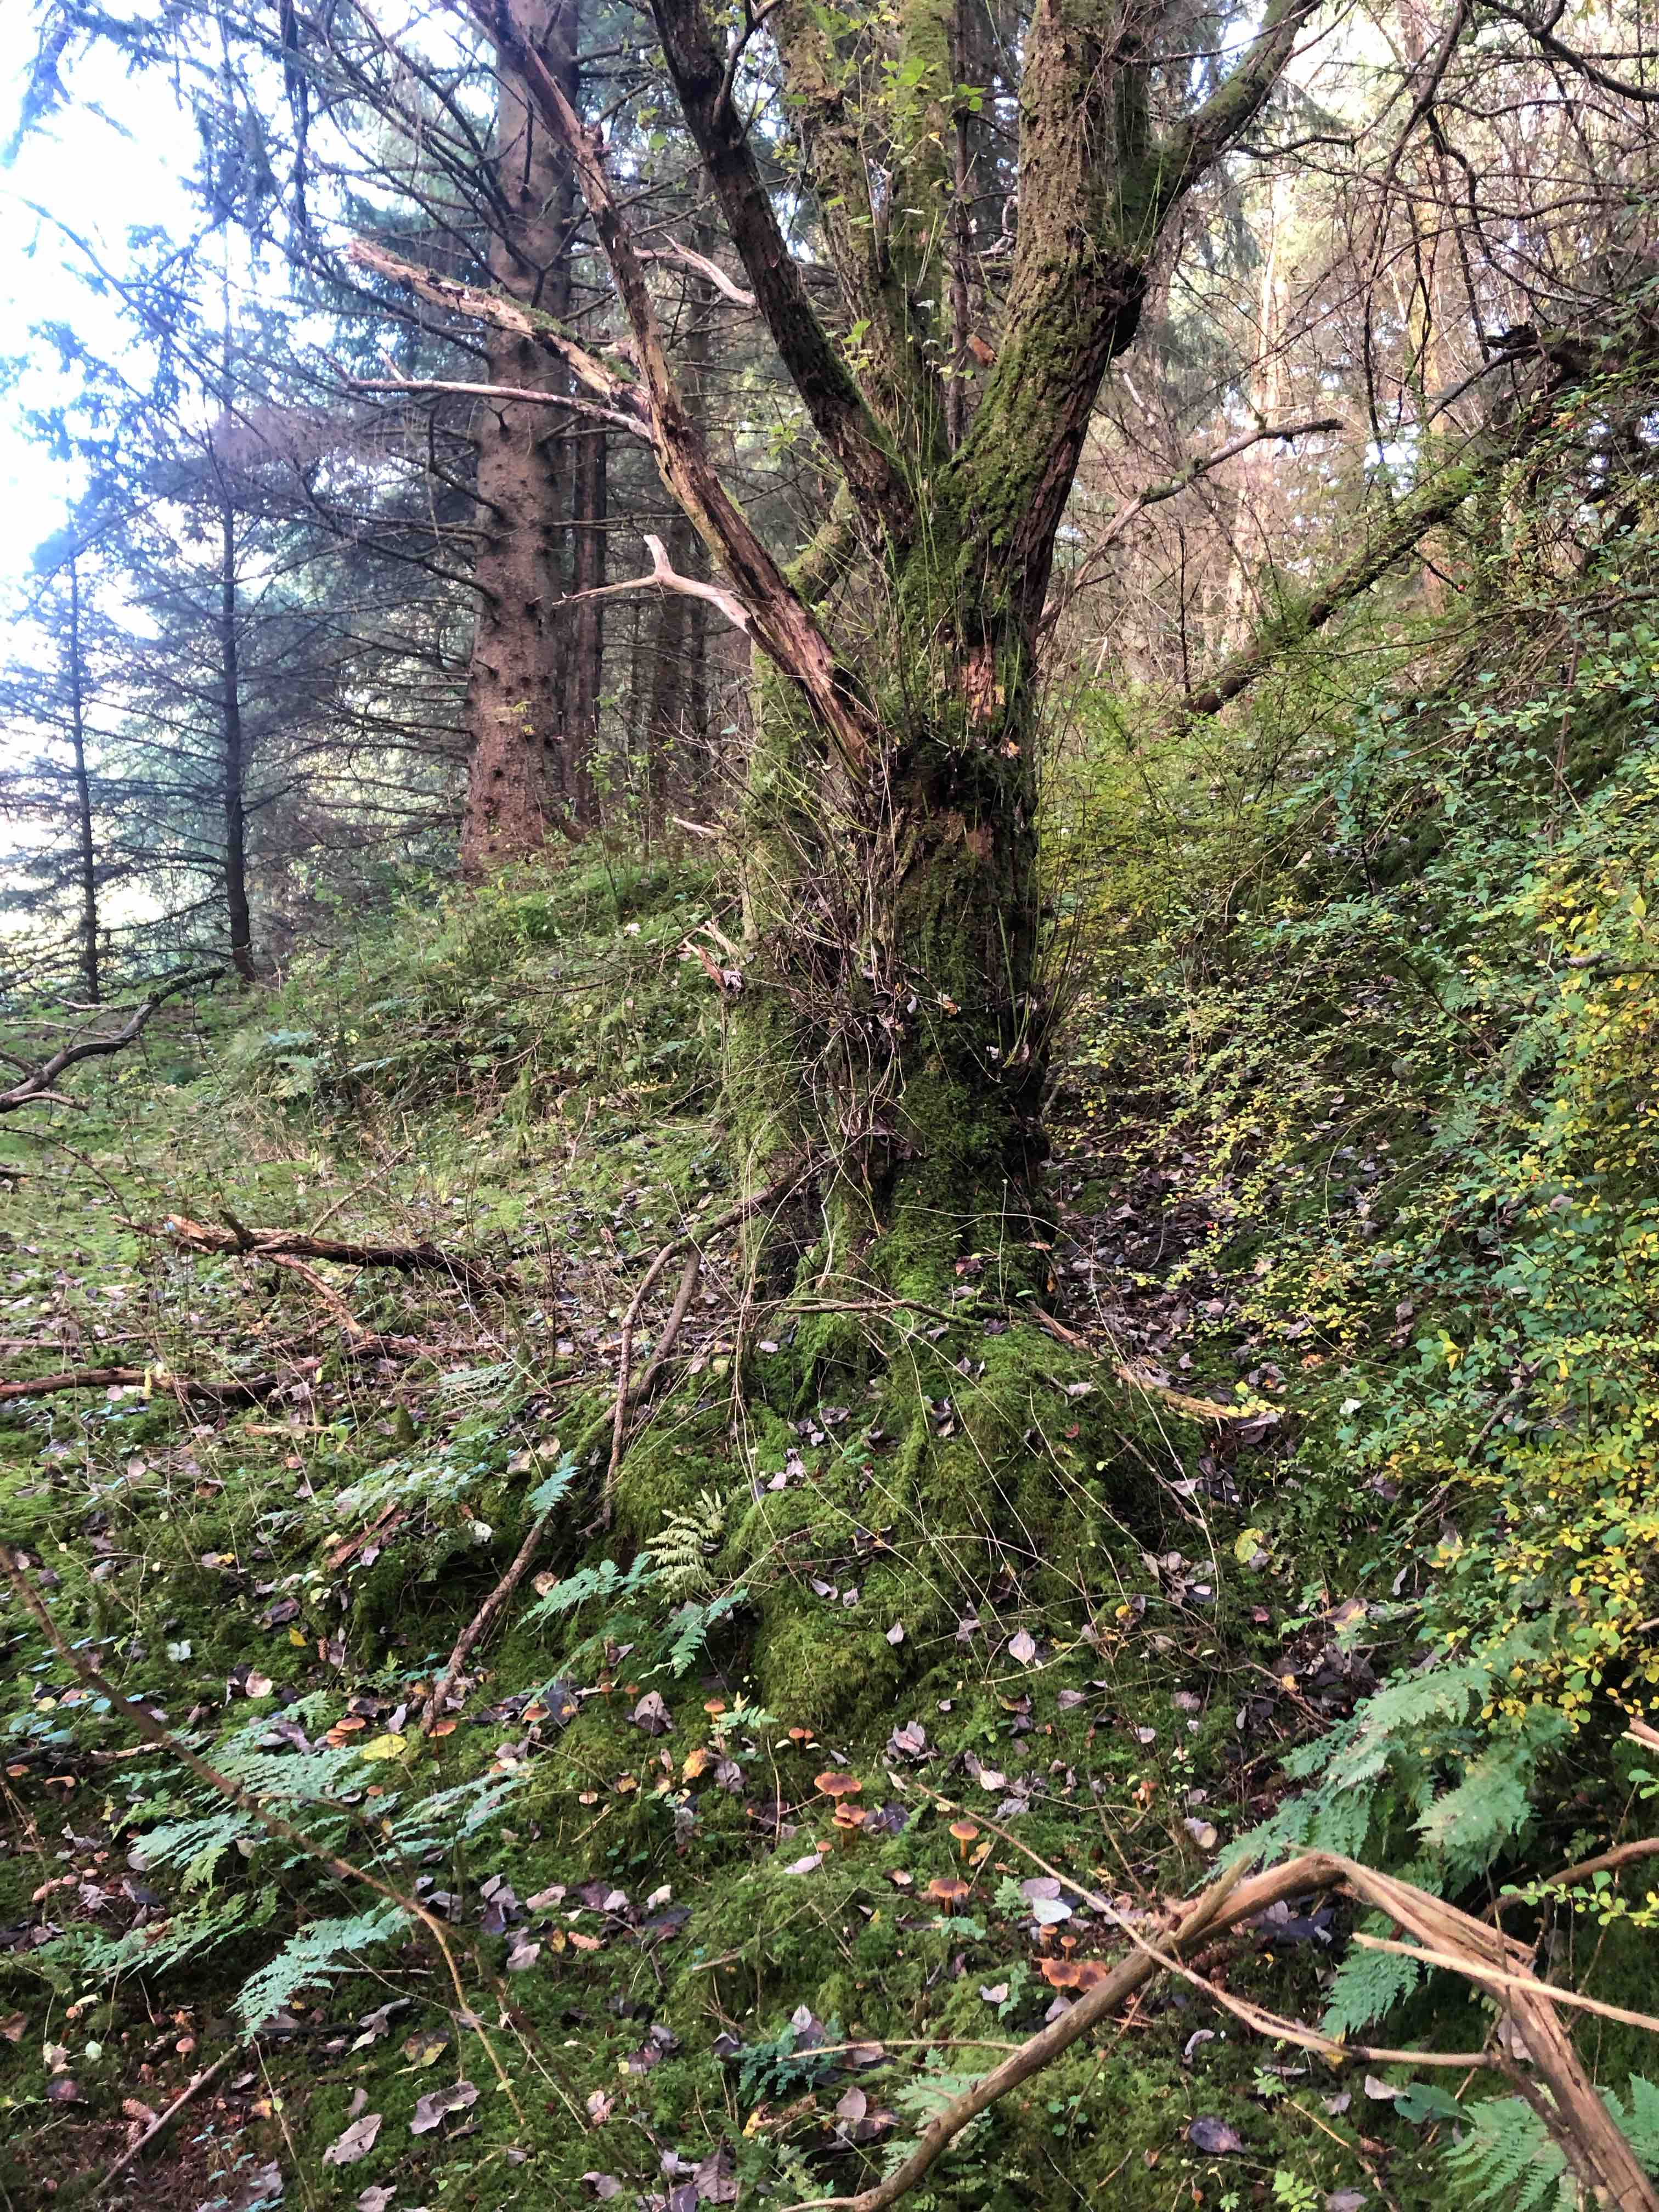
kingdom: Fungi
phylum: Basidiomycota
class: Agaricomycetes
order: Agaricales
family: Hygrophoraceae
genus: Hygrophorus
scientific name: Hygrophorus pustulatus
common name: mørkprikket sneglehat
